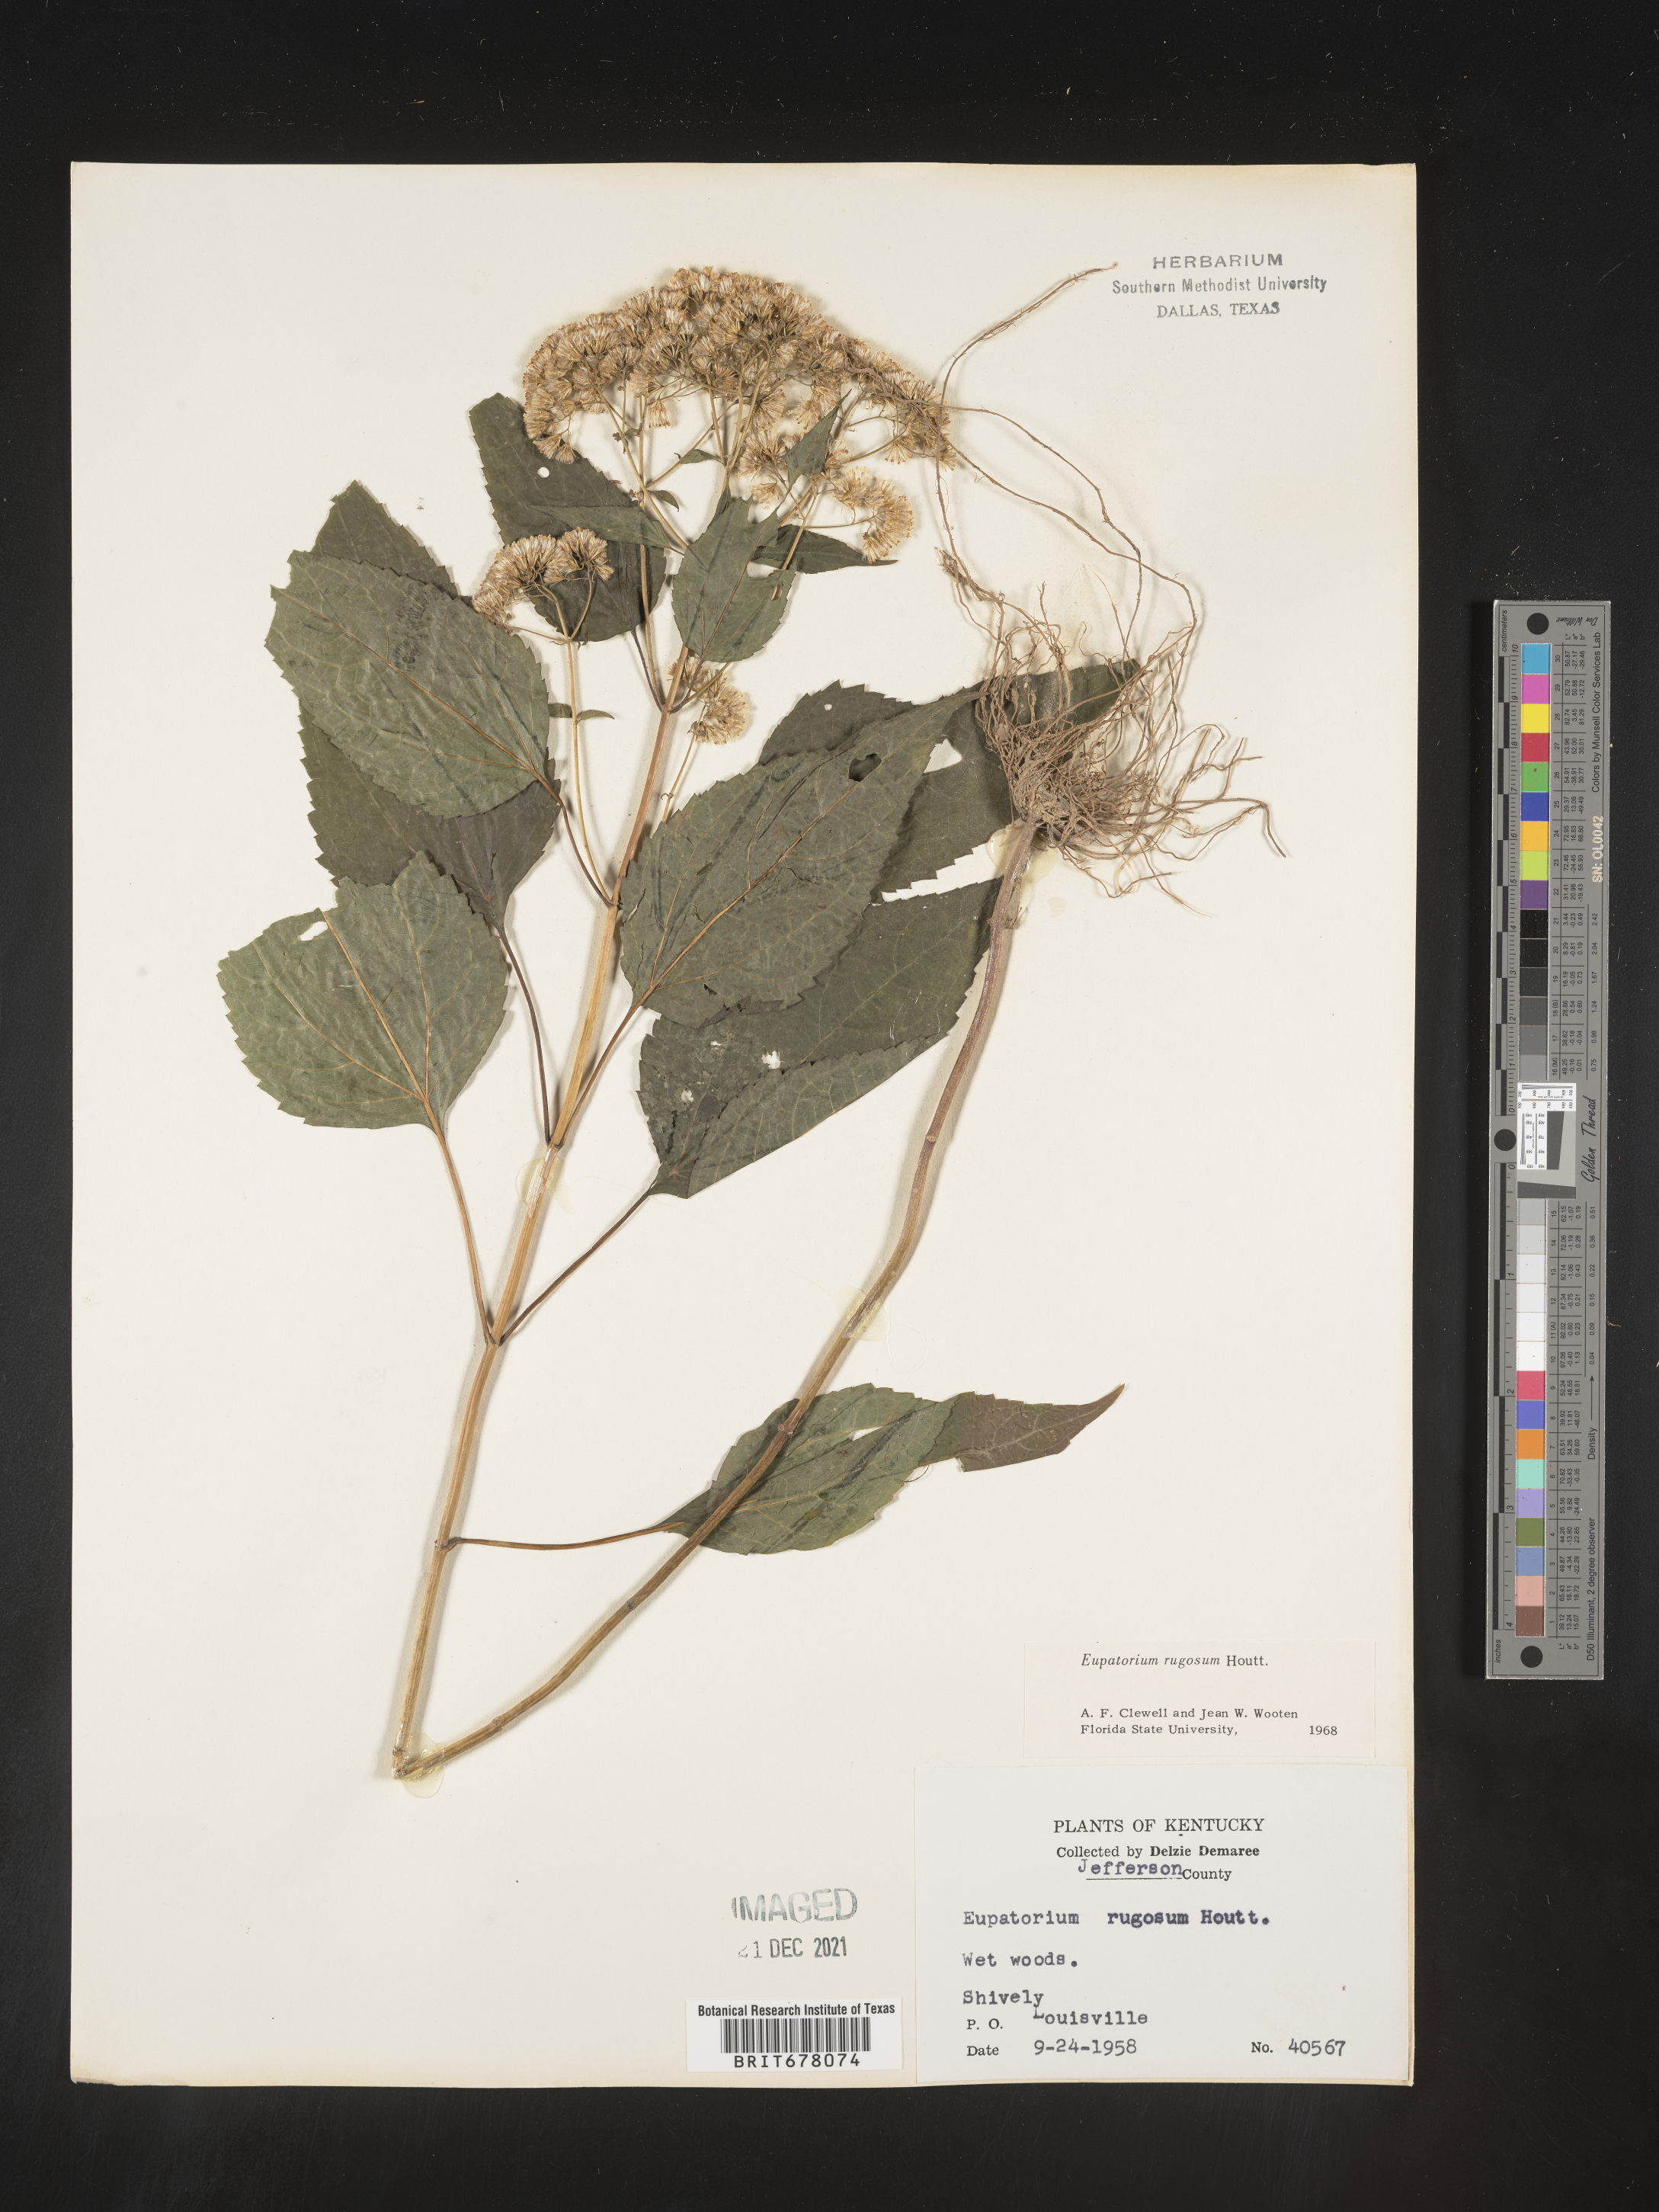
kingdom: Plantae
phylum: Tracheophyta
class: Magnoliopsida
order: Asterales
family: Asteraceae
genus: Eupatorium
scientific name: Eupatorium
